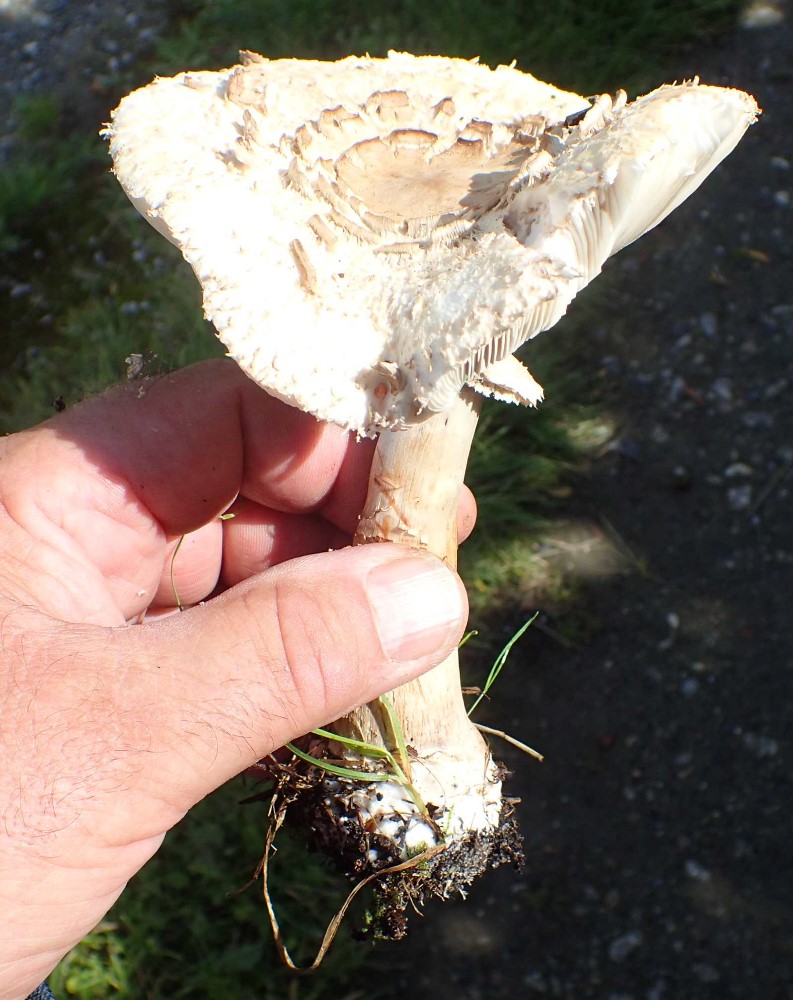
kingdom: Fungi
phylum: Basidiomycota
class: Agaricomycetes
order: Agaricales
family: Agaricaceae
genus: Chlorophyllum
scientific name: Chlorophyllum
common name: rabarberhat
